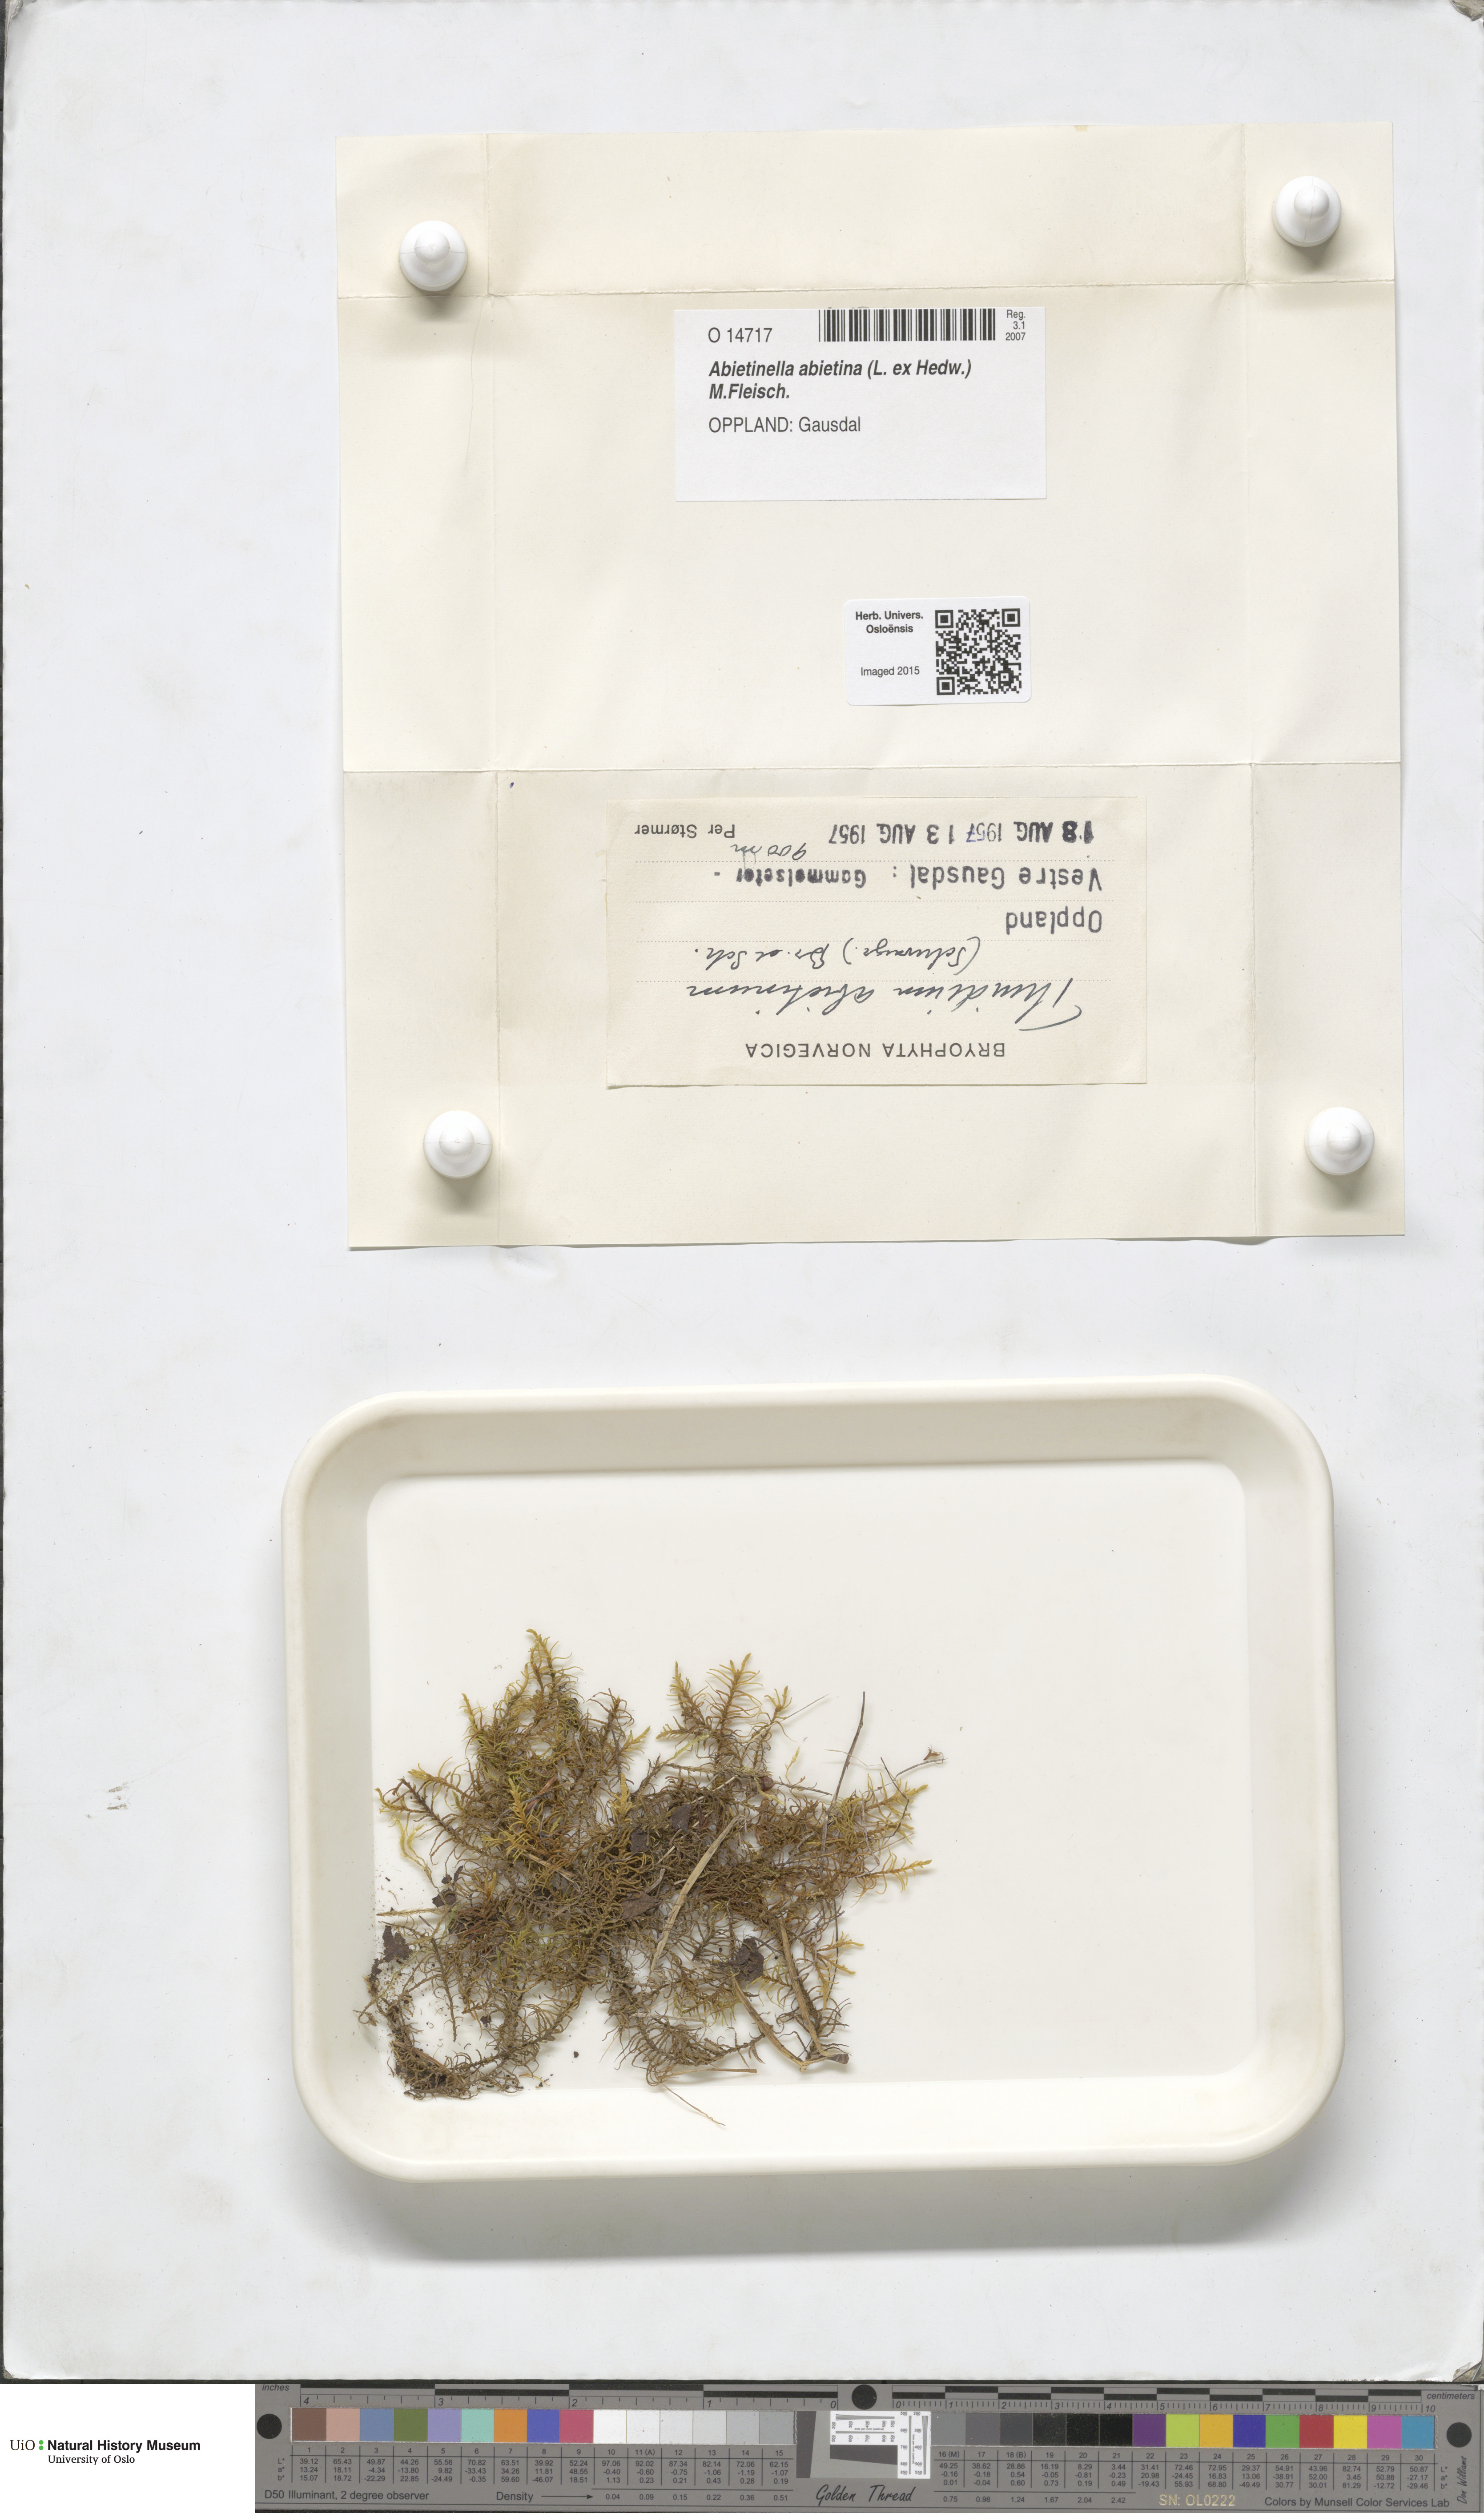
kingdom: Plantae
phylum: Bryophyta
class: Bryopsida
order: Hypnales
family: Thuidiaceae
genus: Abietinella
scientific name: Abietinella abietina
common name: Wiry fern moss
